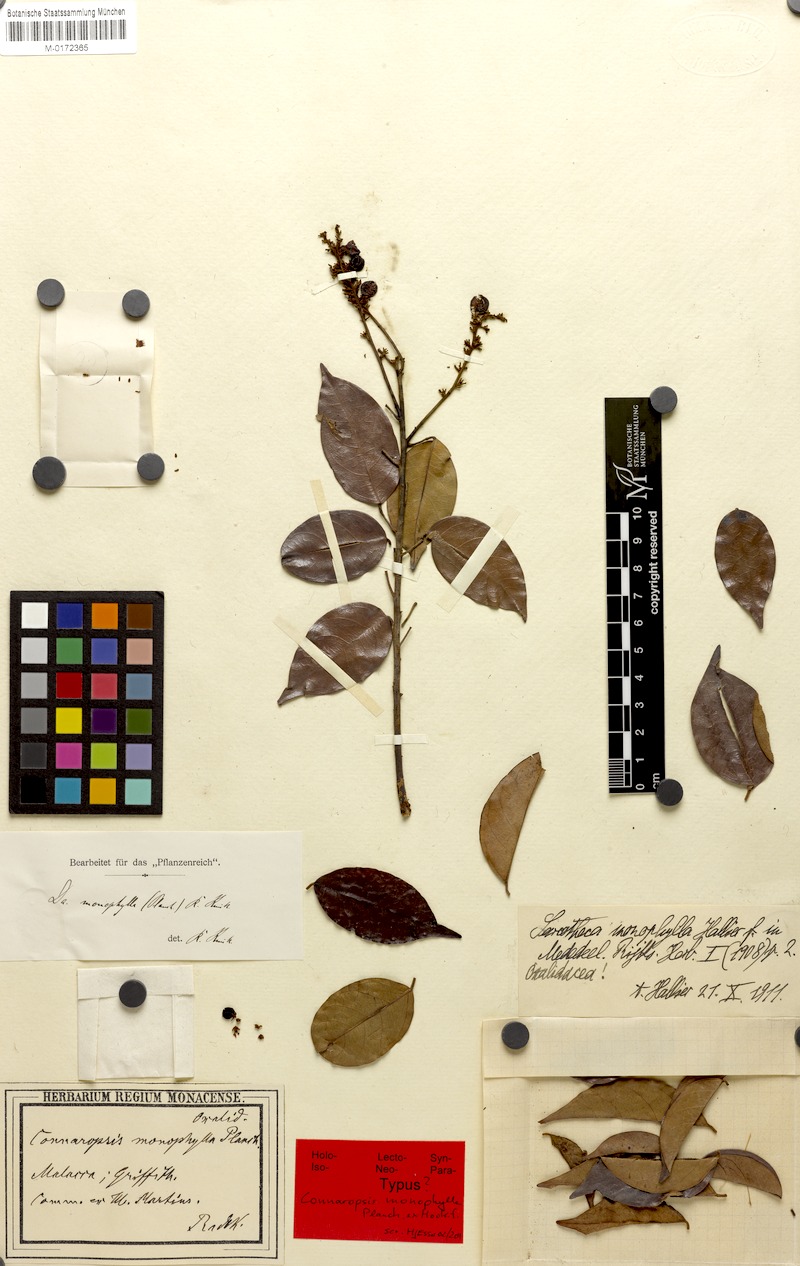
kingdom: Plantae
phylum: Tracheophyta
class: Magnoliopsida
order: Oxalidales
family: Oxalidaceae
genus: Sarcotheca
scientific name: Sarcotheca monophylla
